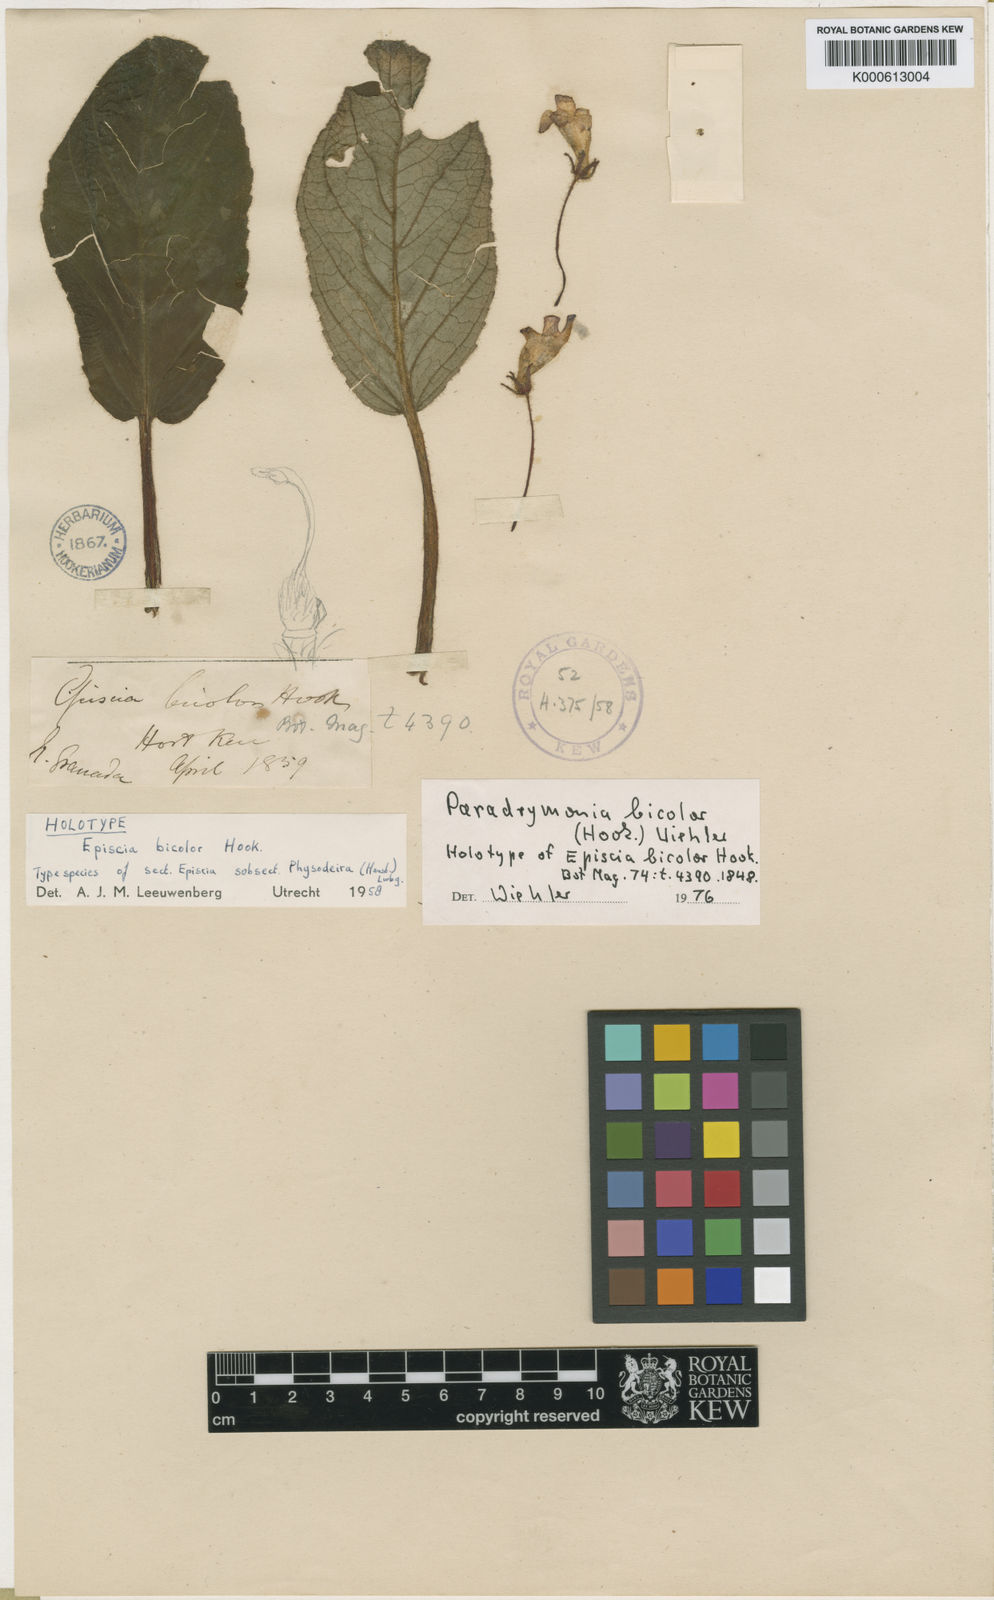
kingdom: Plantae
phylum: Tracheophyta
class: Magnoliopsida
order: Lamiales
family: Gesneriaceae
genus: Paradrymonia
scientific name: Paradrymonia
